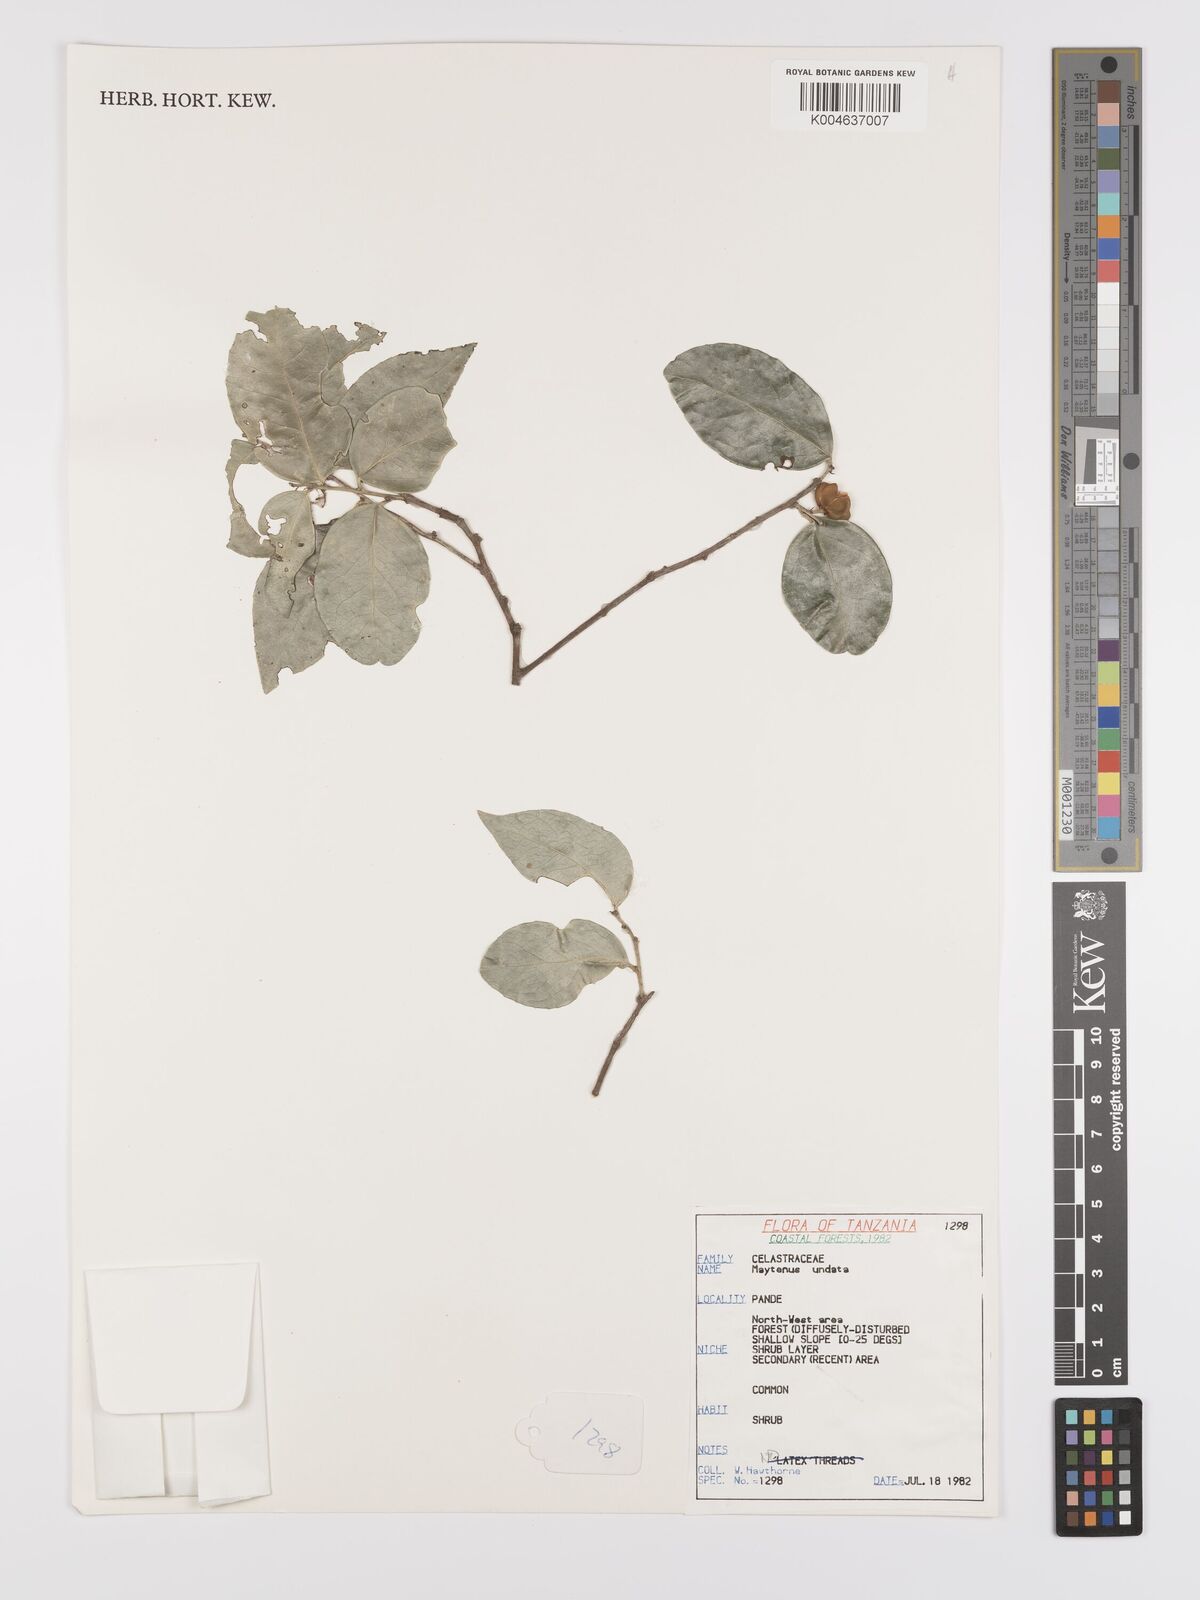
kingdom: Plantae
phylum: Tracheophyta
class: Magnoliopsida
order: Celastrales
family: Celastraceae
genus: Gymnosporia
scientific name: Gymnosporia undata
